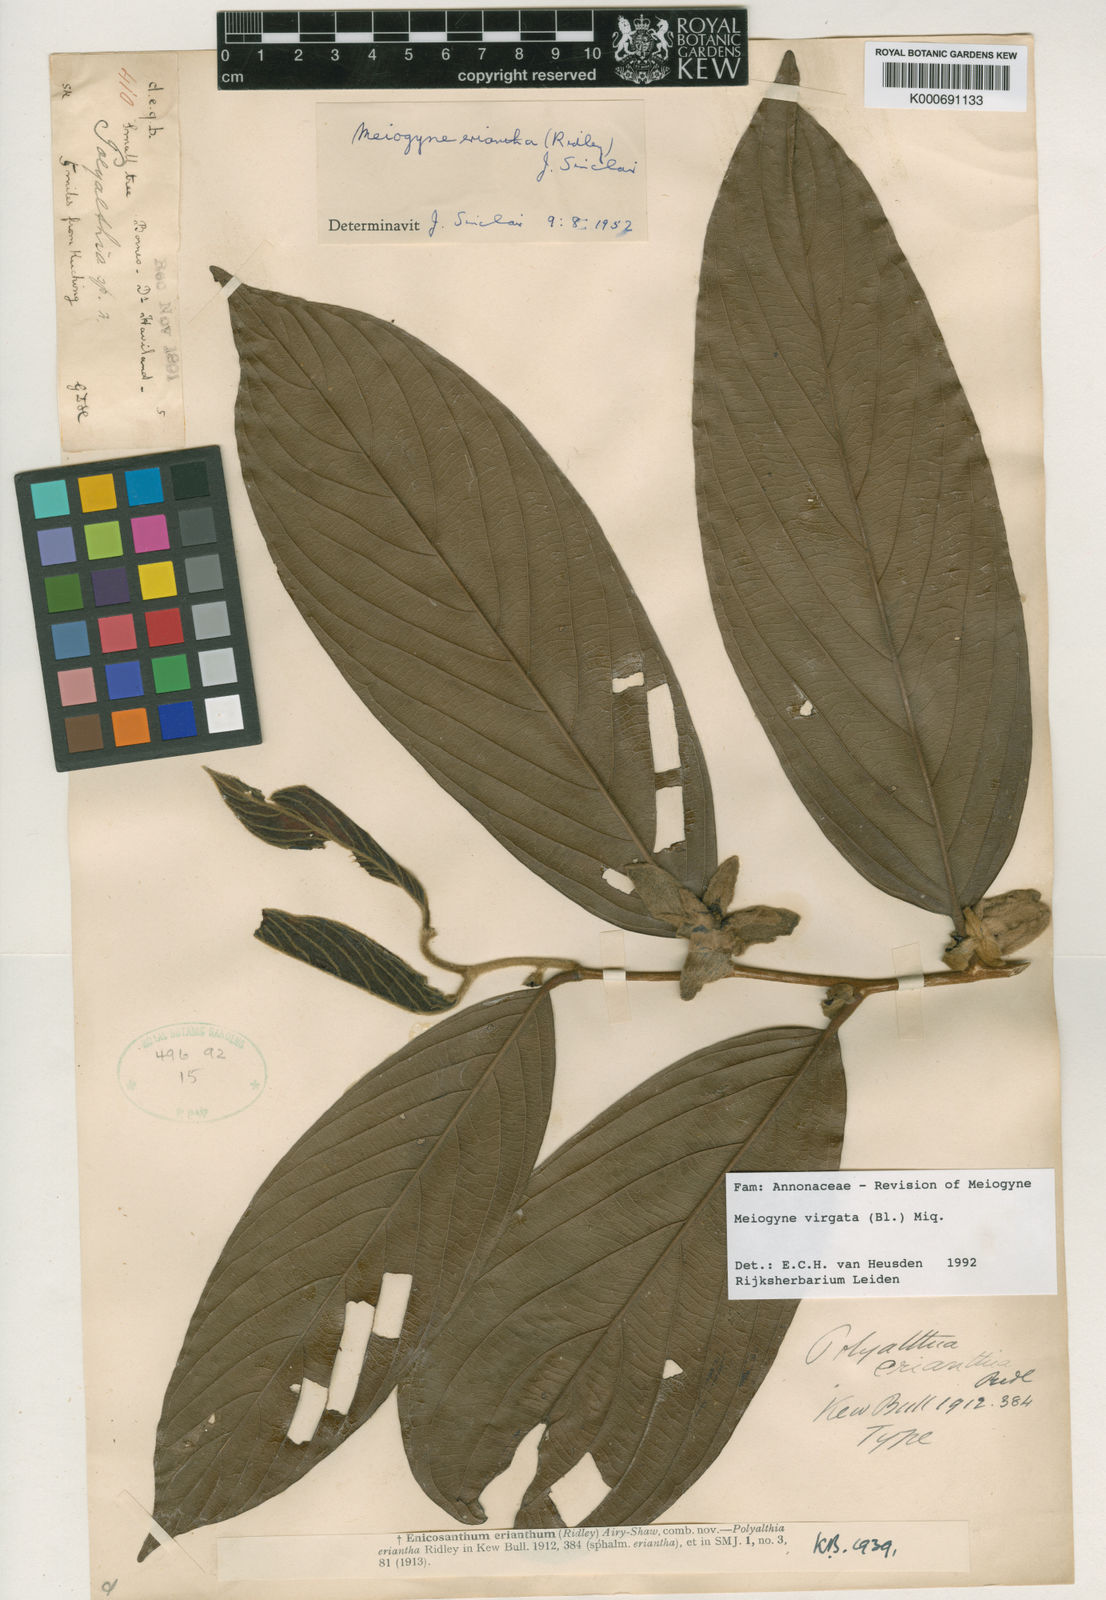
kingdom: Plantae
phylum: Tracheophyta
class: Magnoliopsida
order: Magnoliales
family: Annonaceae
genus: Meiogyne
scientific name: Meiogyne virgata
